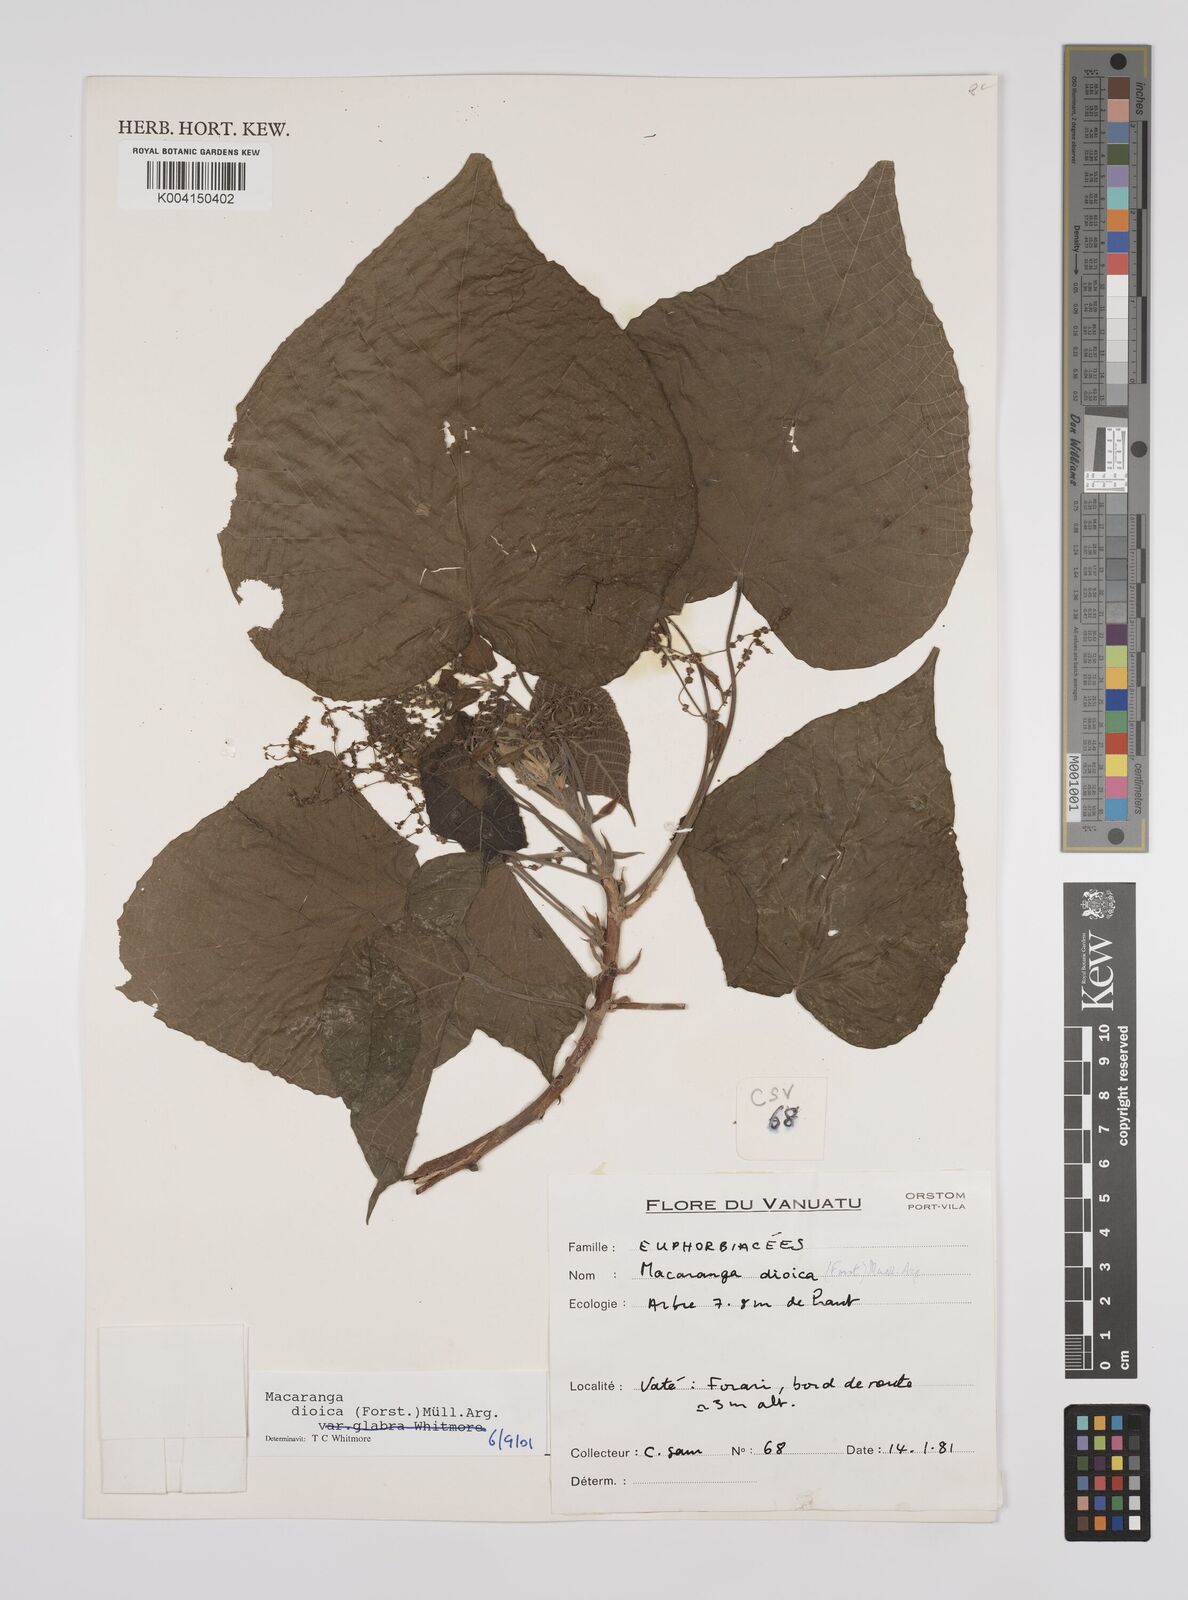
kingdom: Plantae
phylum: Tracheophyta
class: Magnoliopsida
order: Malpighiales
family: Euphorbiaceae
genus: Macaranga
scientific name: Macaranga dioica
